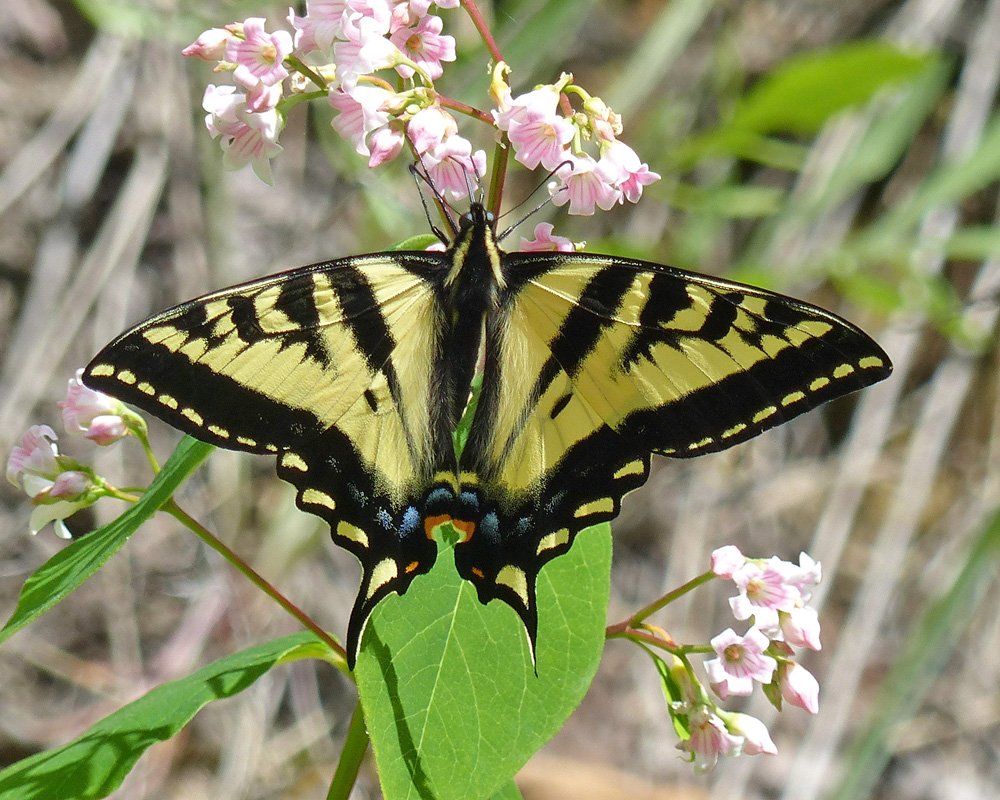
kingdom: Animalia
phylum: Arthropoda
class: Insecta
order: Lepidoptera
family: Papilionidae
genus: Pterourus
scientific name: Pterourus rutulus
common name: Western Tiger Swallowtail
